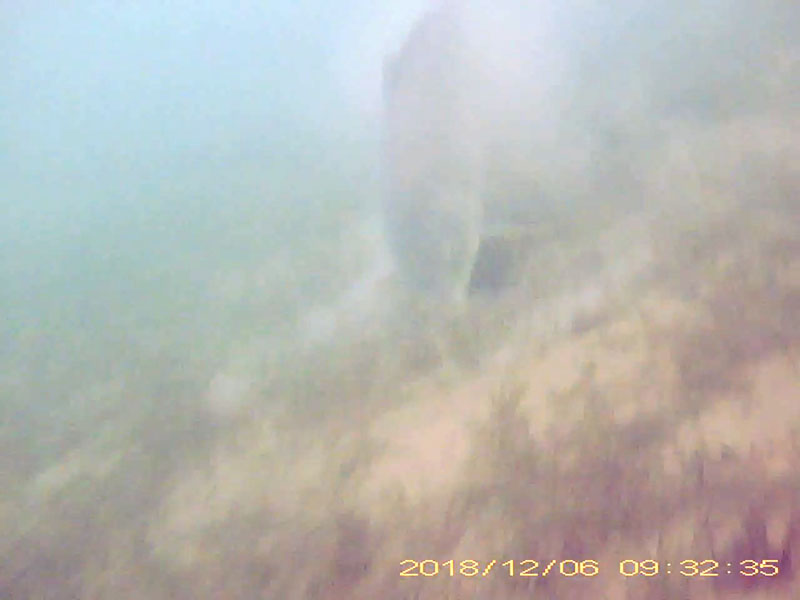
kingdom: Animalia
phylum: Chordata
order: Cypriniformes
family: Cyprinidae
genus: Cyprinus
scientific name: Cyprinus carpio
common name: コイ
